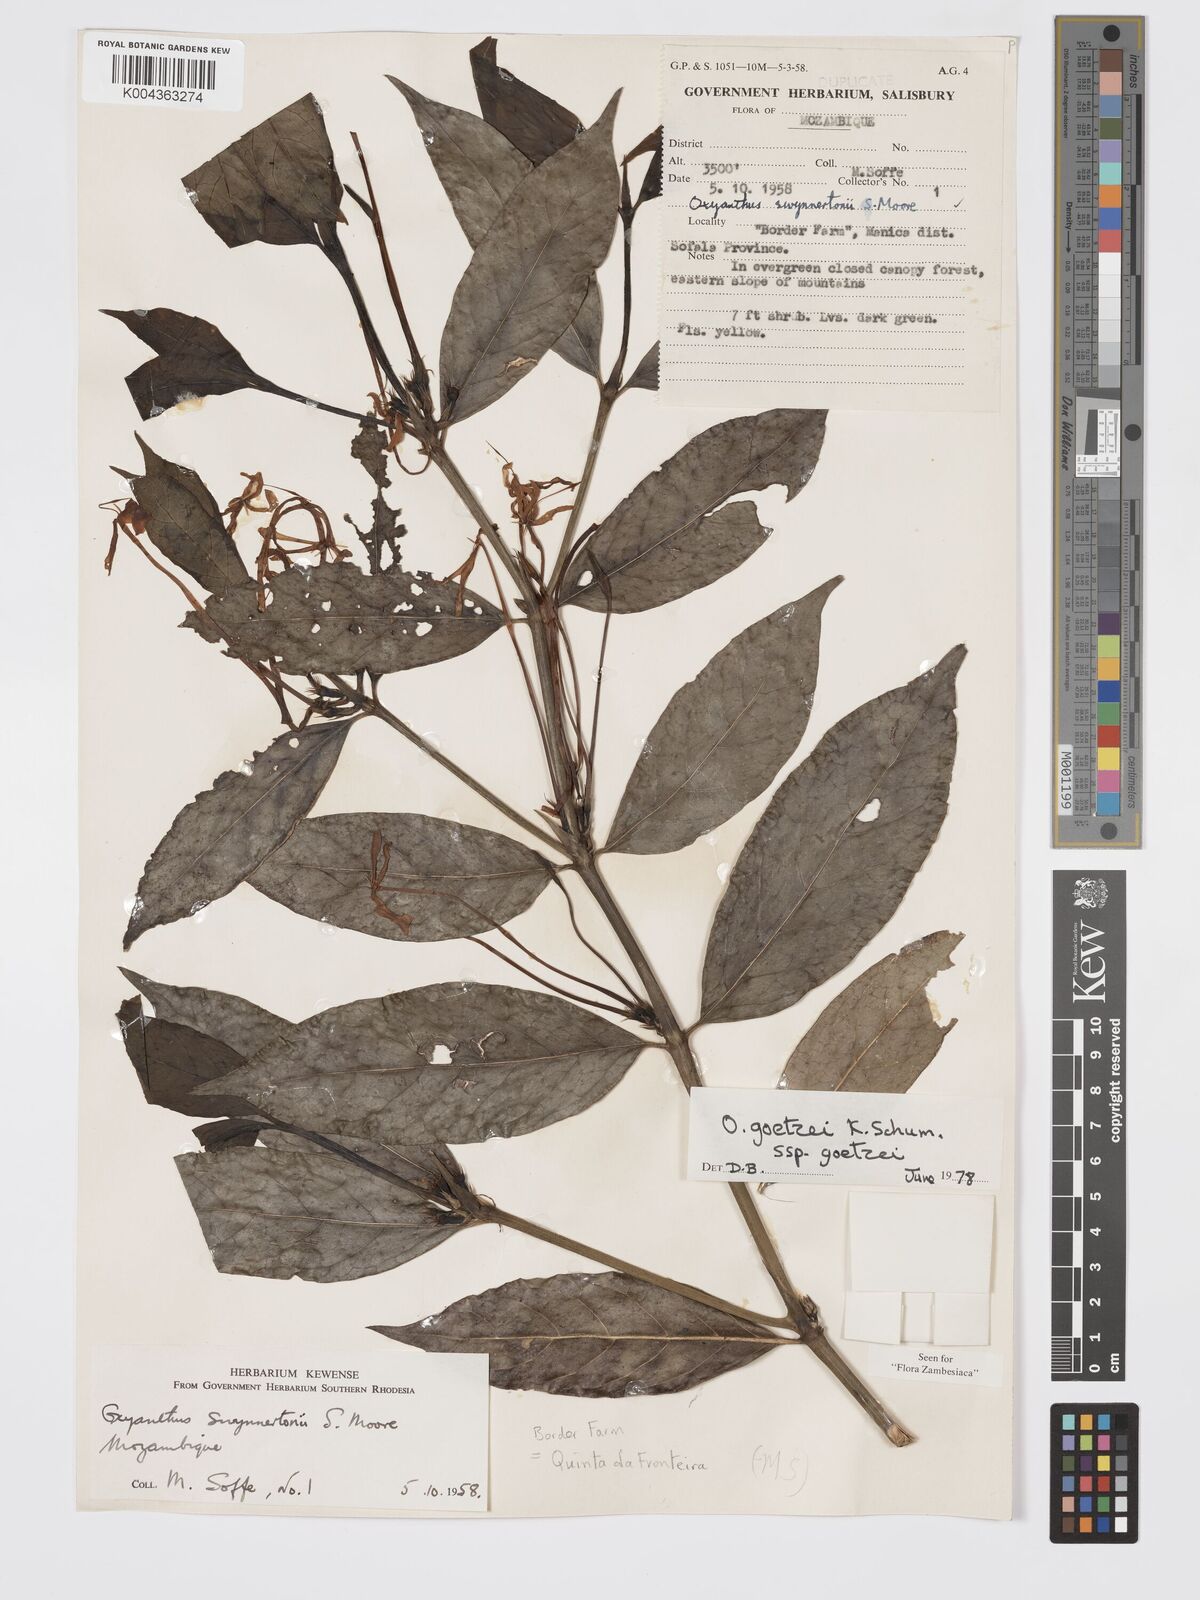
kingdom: Plantae
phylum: Tracheophyta
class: Magnoliopsida
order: Gentianales
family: Rubiaceae
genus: Oxyanthus
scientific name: Oxyanthus goetzei
